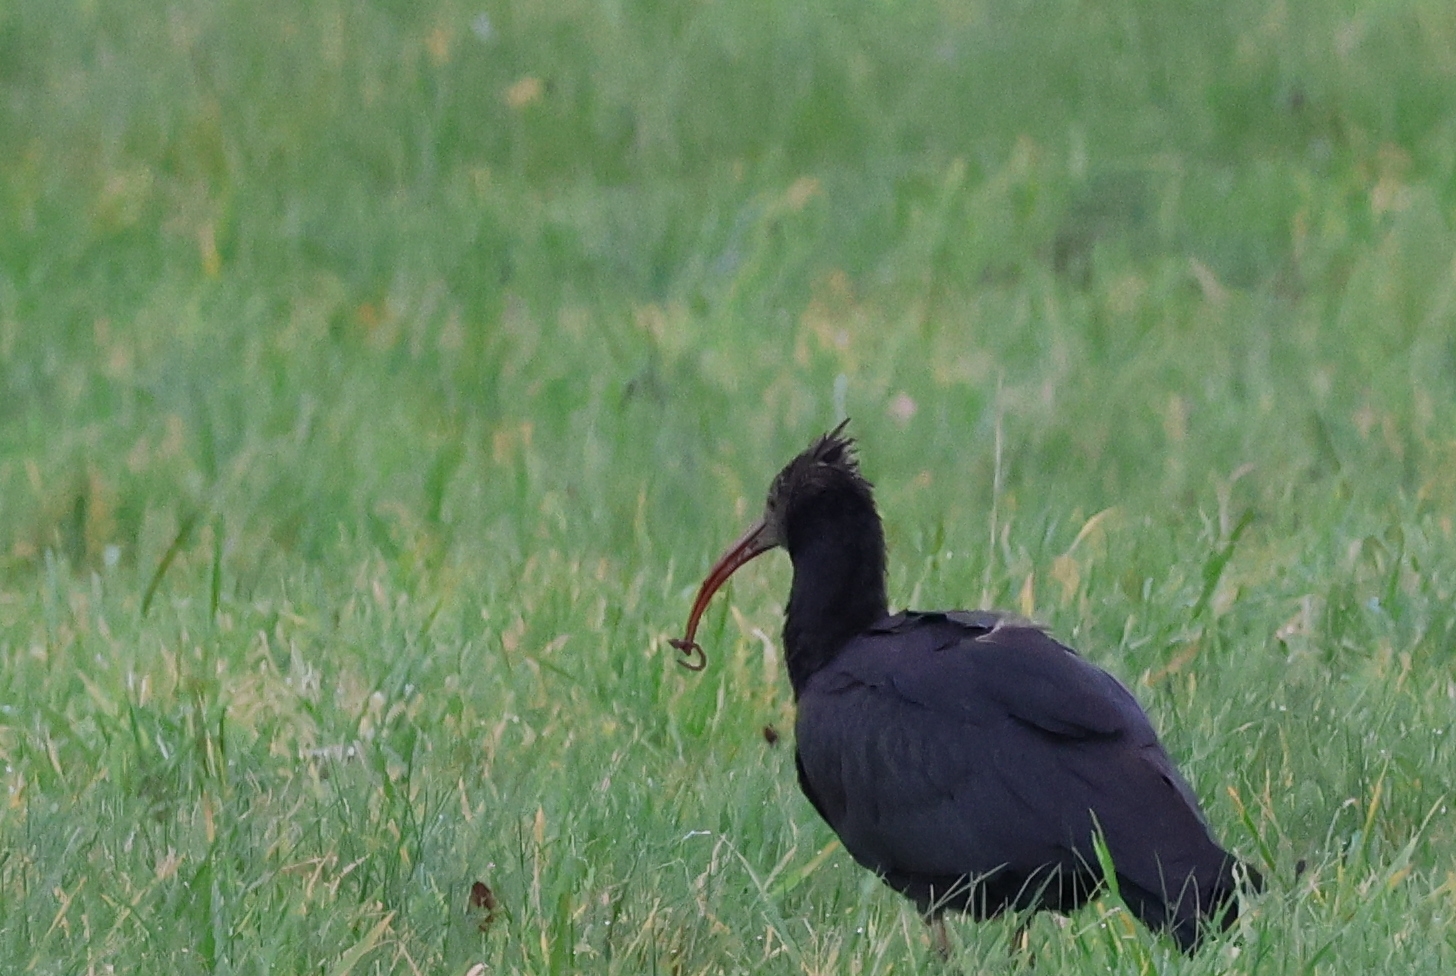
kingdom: Animalia
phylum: Chordata
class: Aves
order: Pelecaniformes
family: Threskiornithidae
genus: Geronticus
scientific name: Geronticus eremita
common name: Eremitibis
